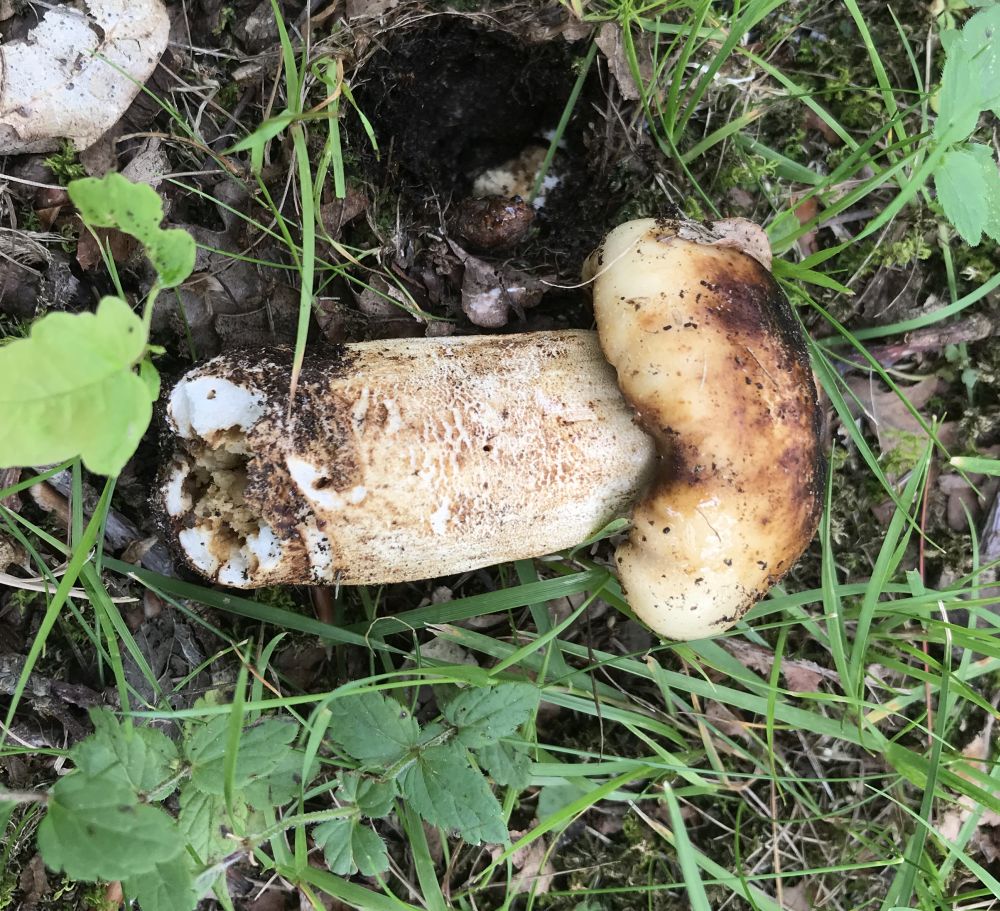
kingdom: Fungi
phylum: Basidiomycota
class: Agaricomycetes
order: Russulales
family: Russulaceae
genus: Russula
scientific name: Russula foetens
